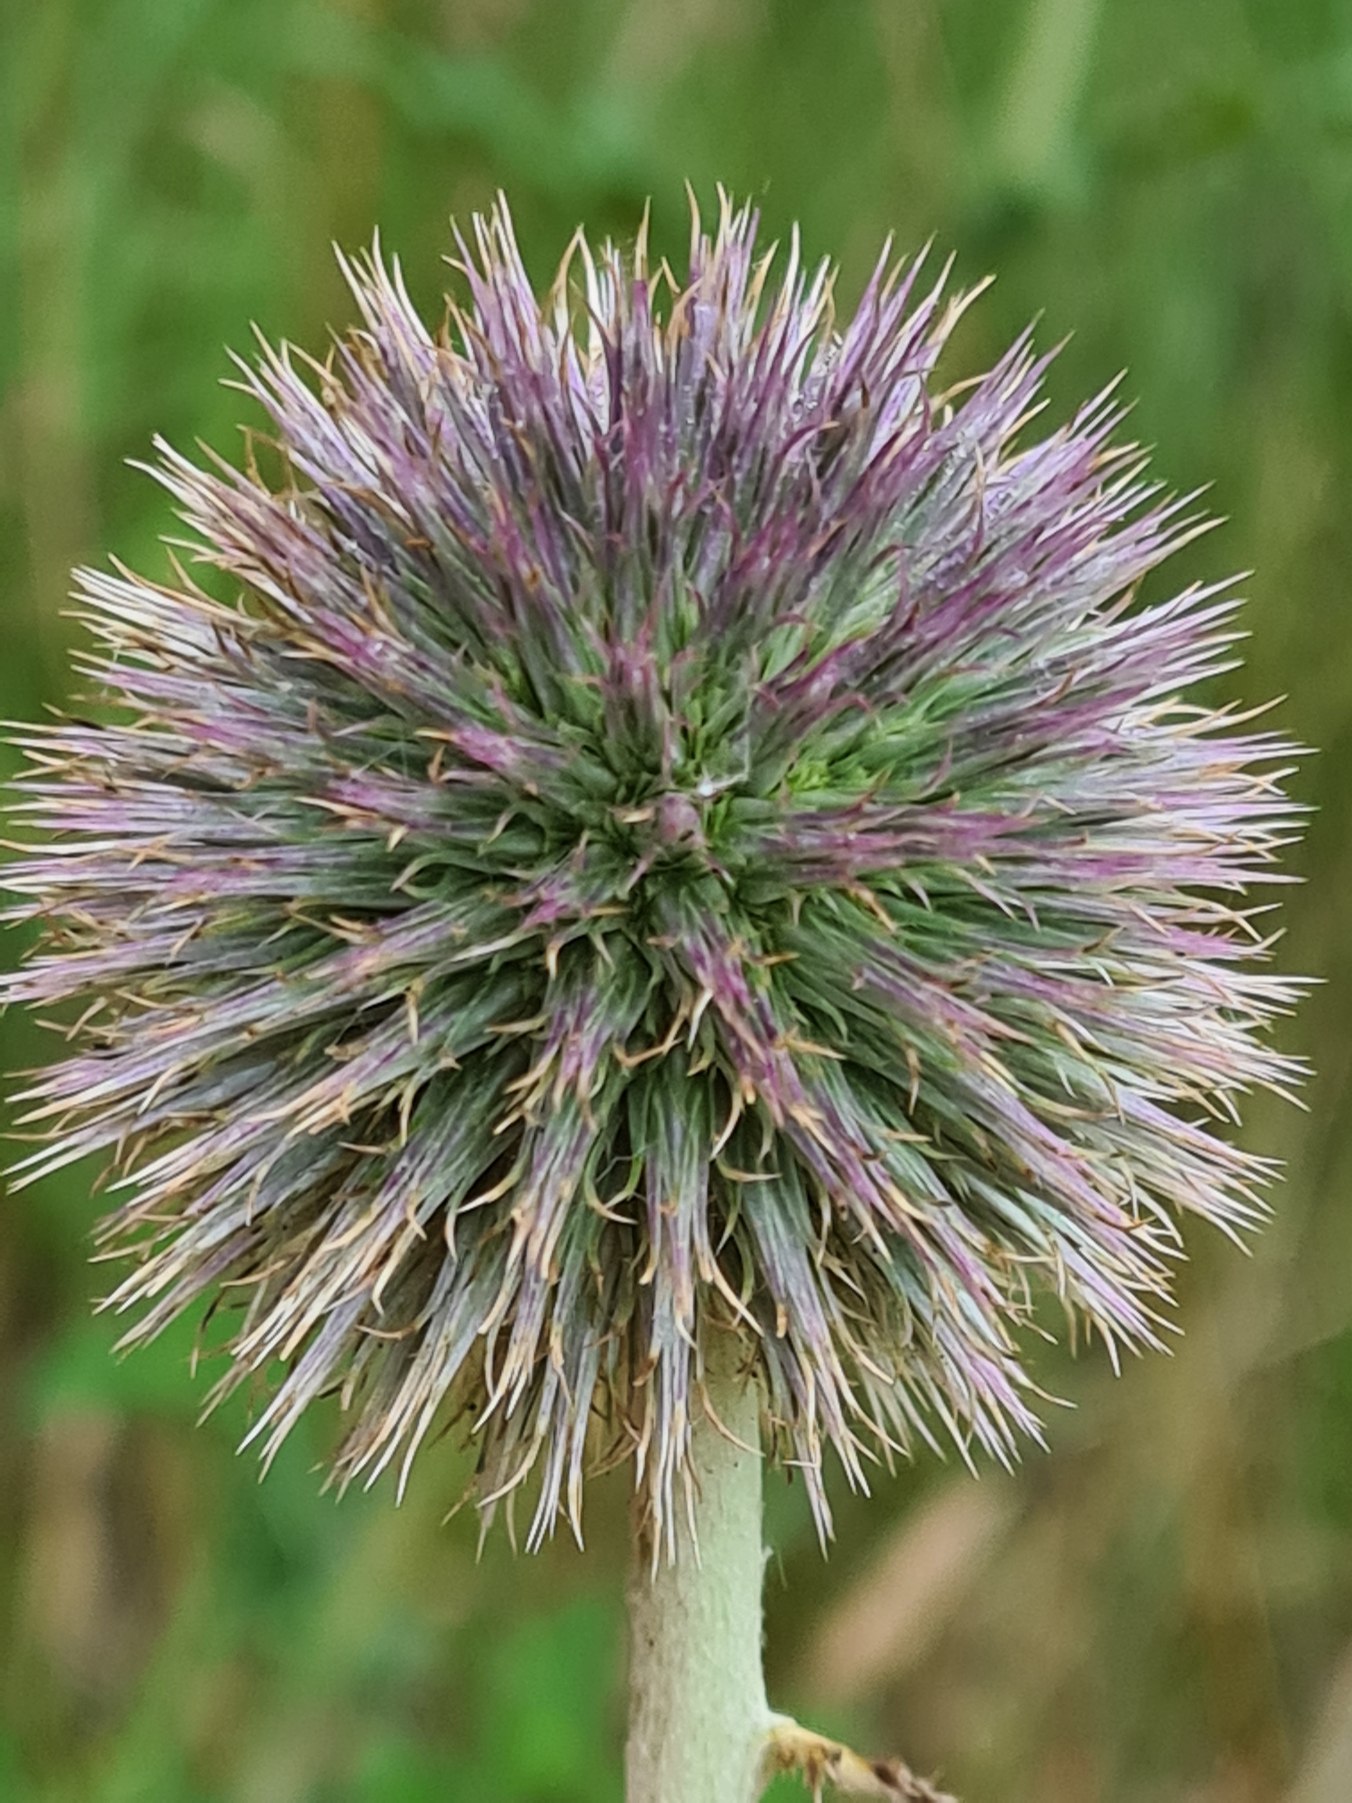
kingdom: Plantae
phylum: Tracheophyta
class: Magnoliopsida
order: Asterales
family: Asteraceae
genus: Echinops
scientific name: Echinops exaltatus
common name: Høj tidselkugle
